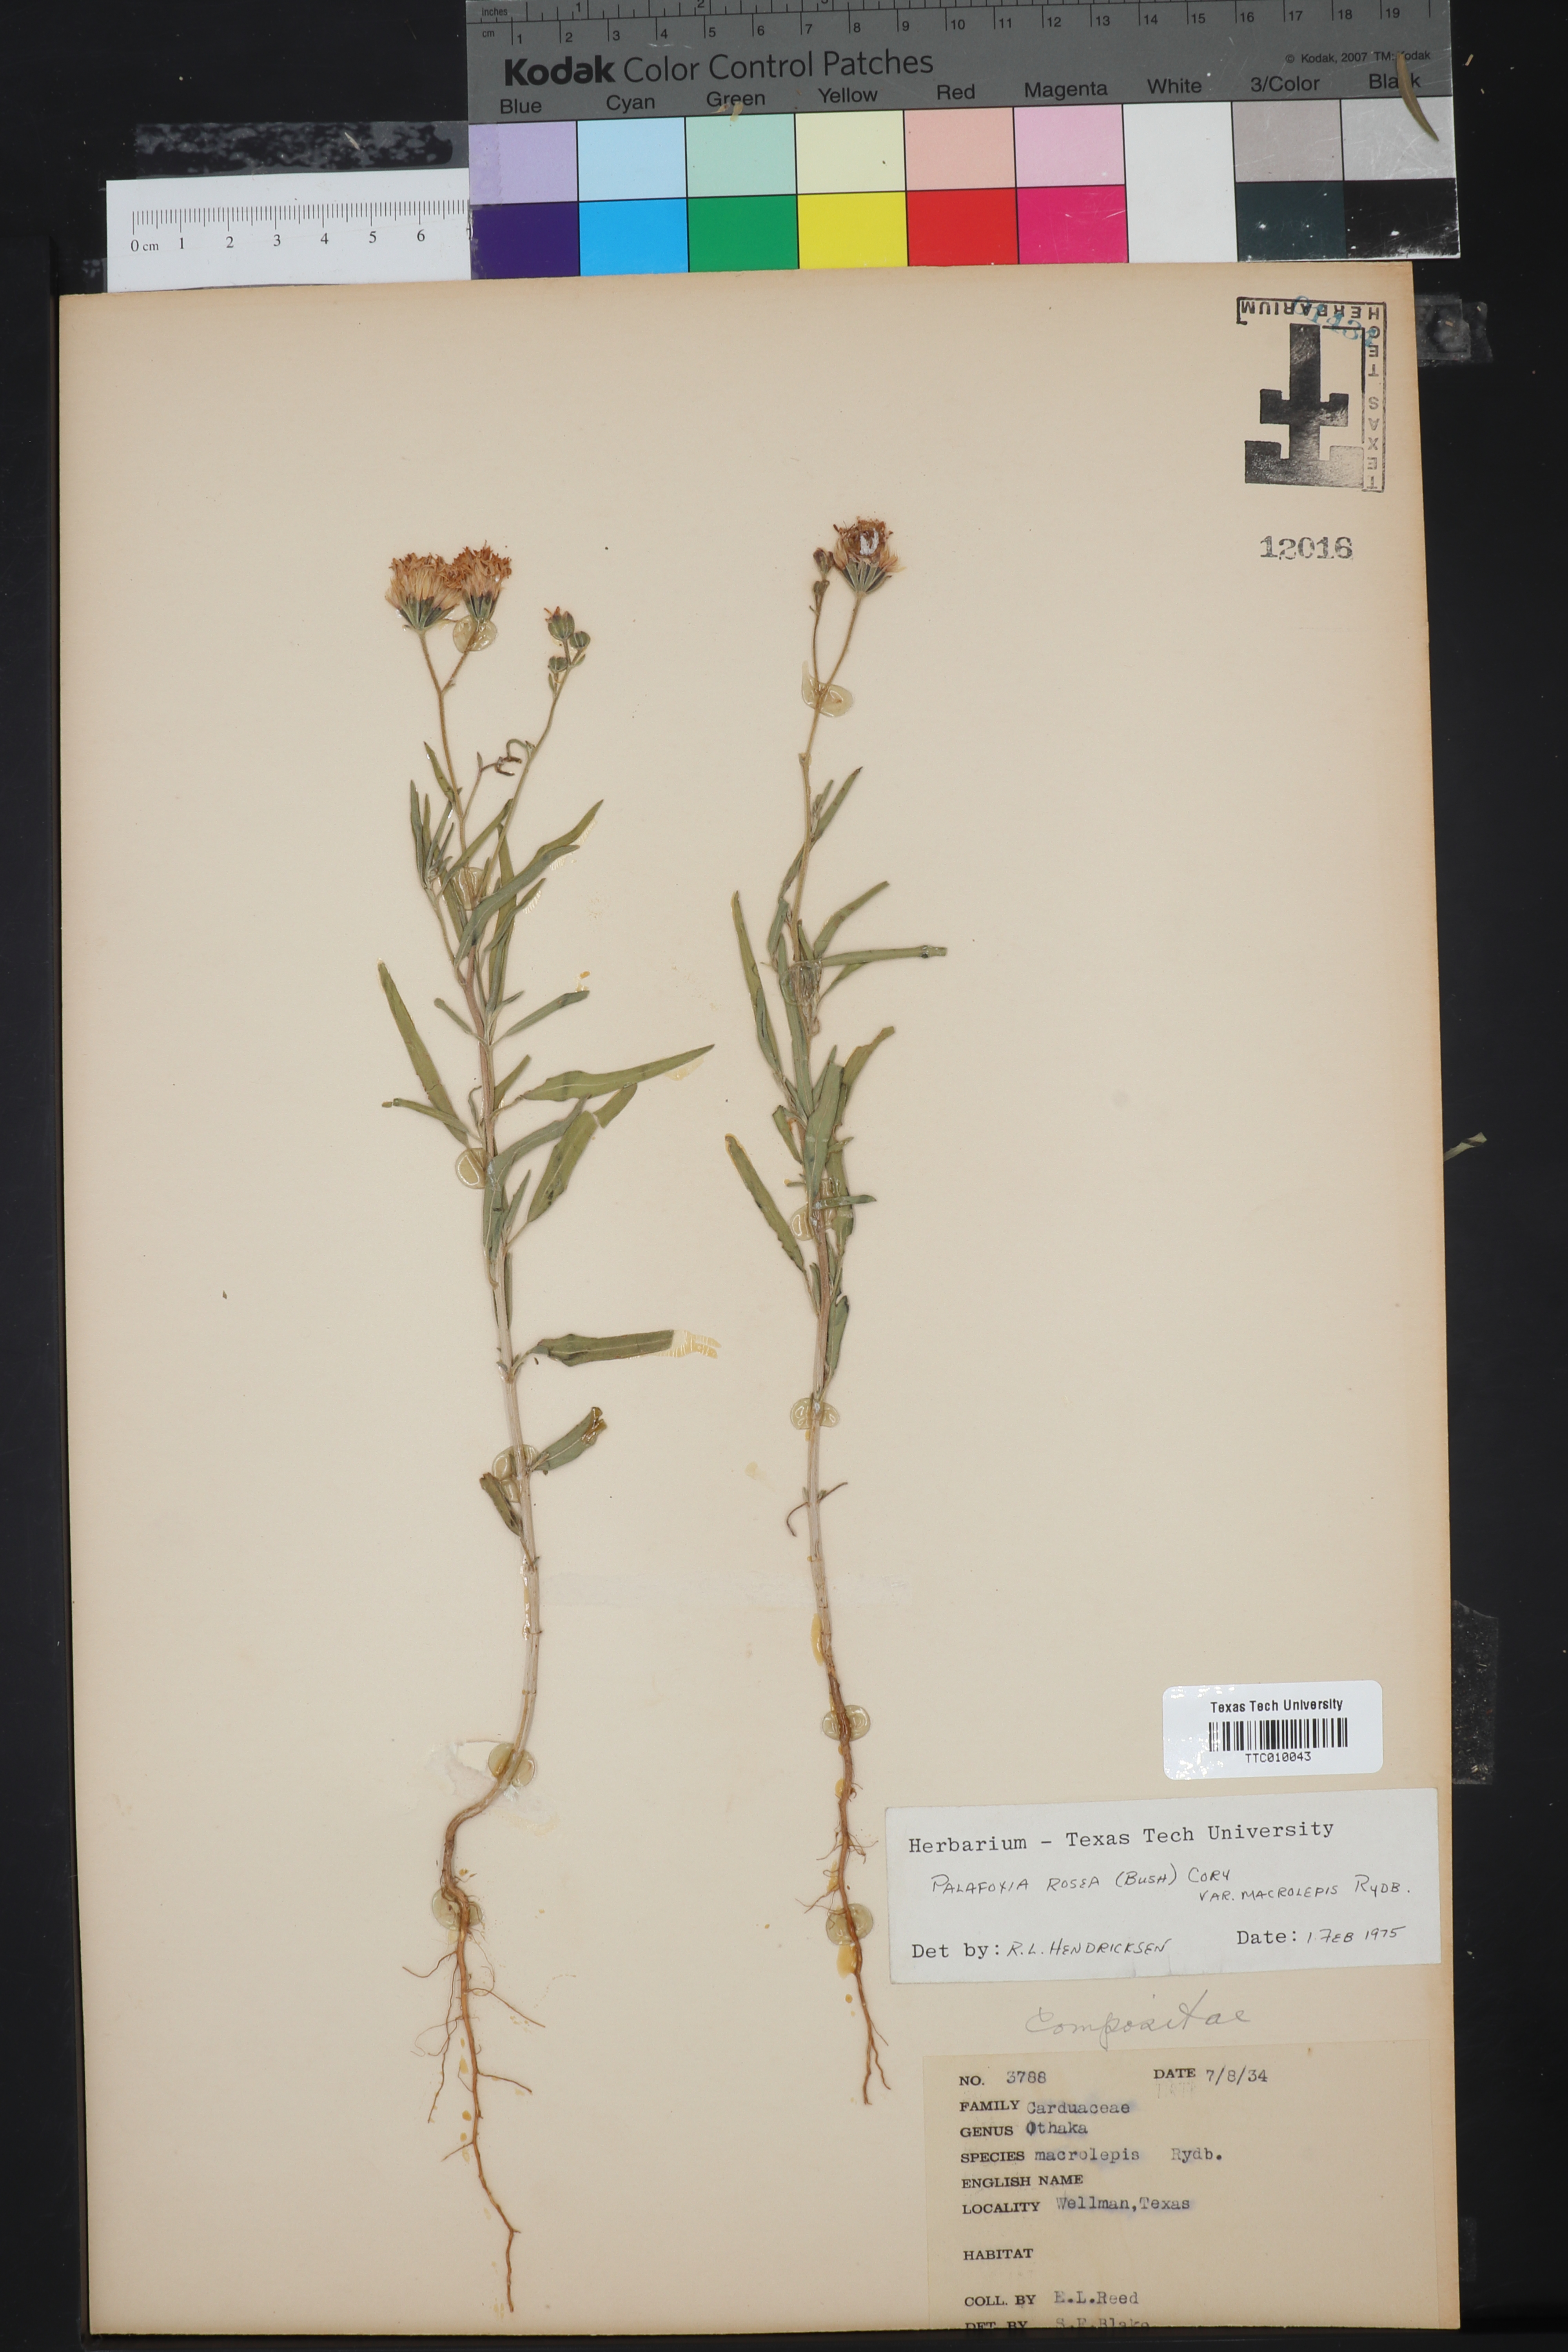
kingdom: Plantae
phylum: Tracheophyta
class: Magnoliopsida
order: Asterales
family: Asteraceae
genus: Palafoxia
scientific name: Palafoxia rosea
